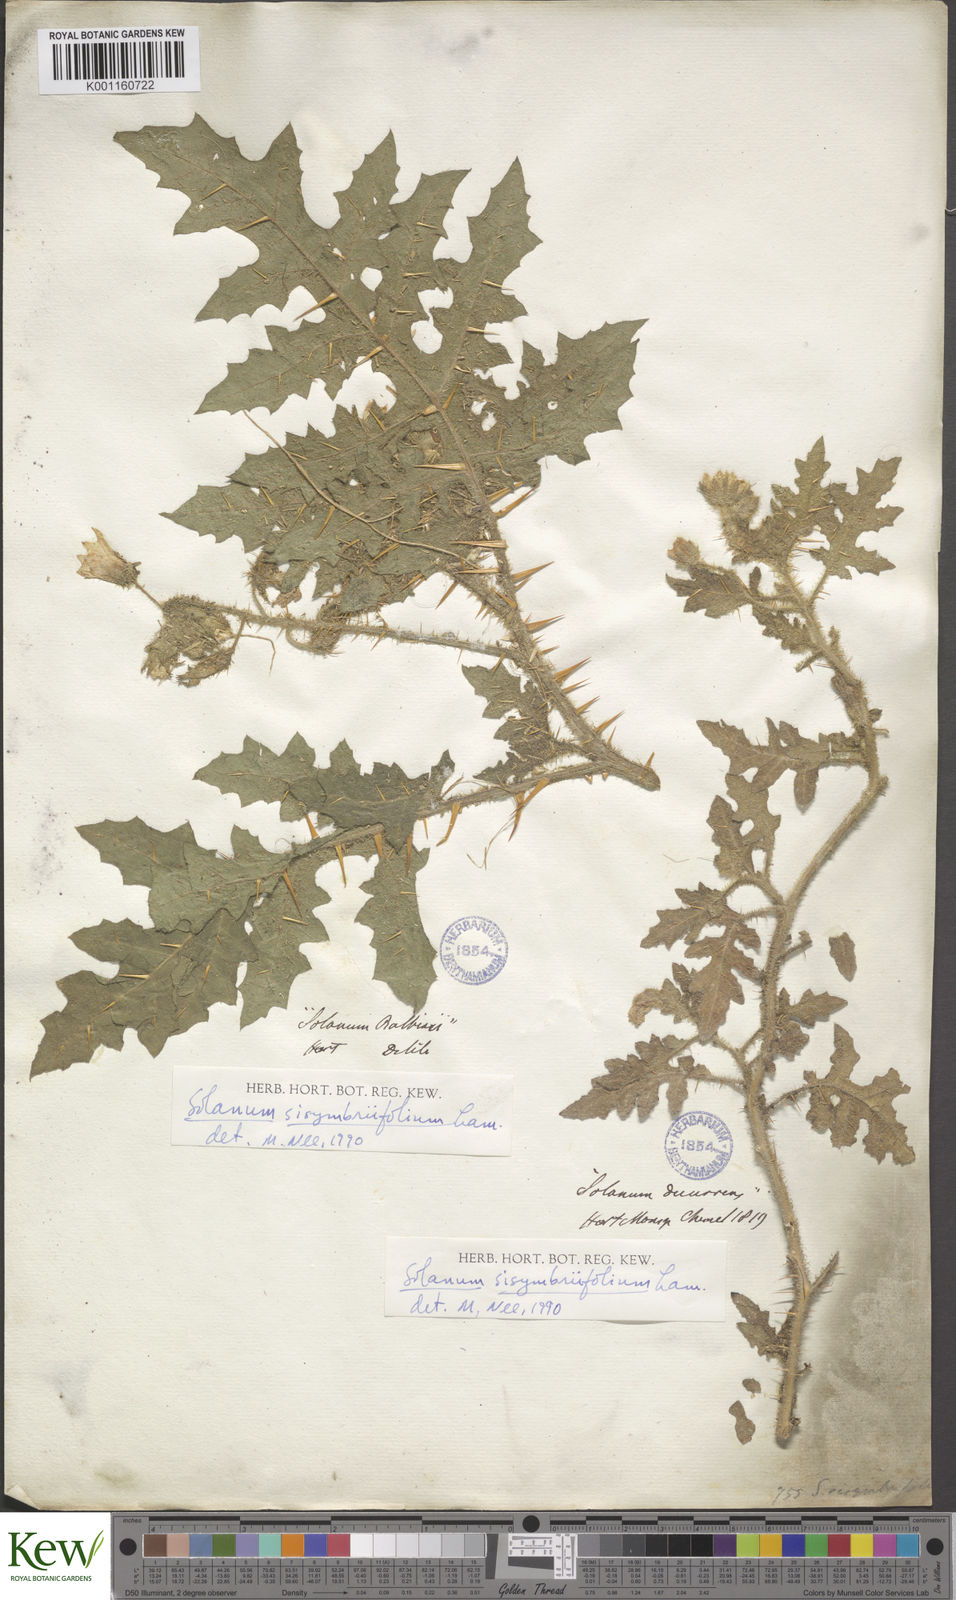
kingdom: Plantae
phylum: Tracheophyta
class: Magnoliopsida
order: Solanales
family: Solanaceae
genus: Solanum
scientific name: Solanum sisymbriifolium
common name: Red buffalo-bur
